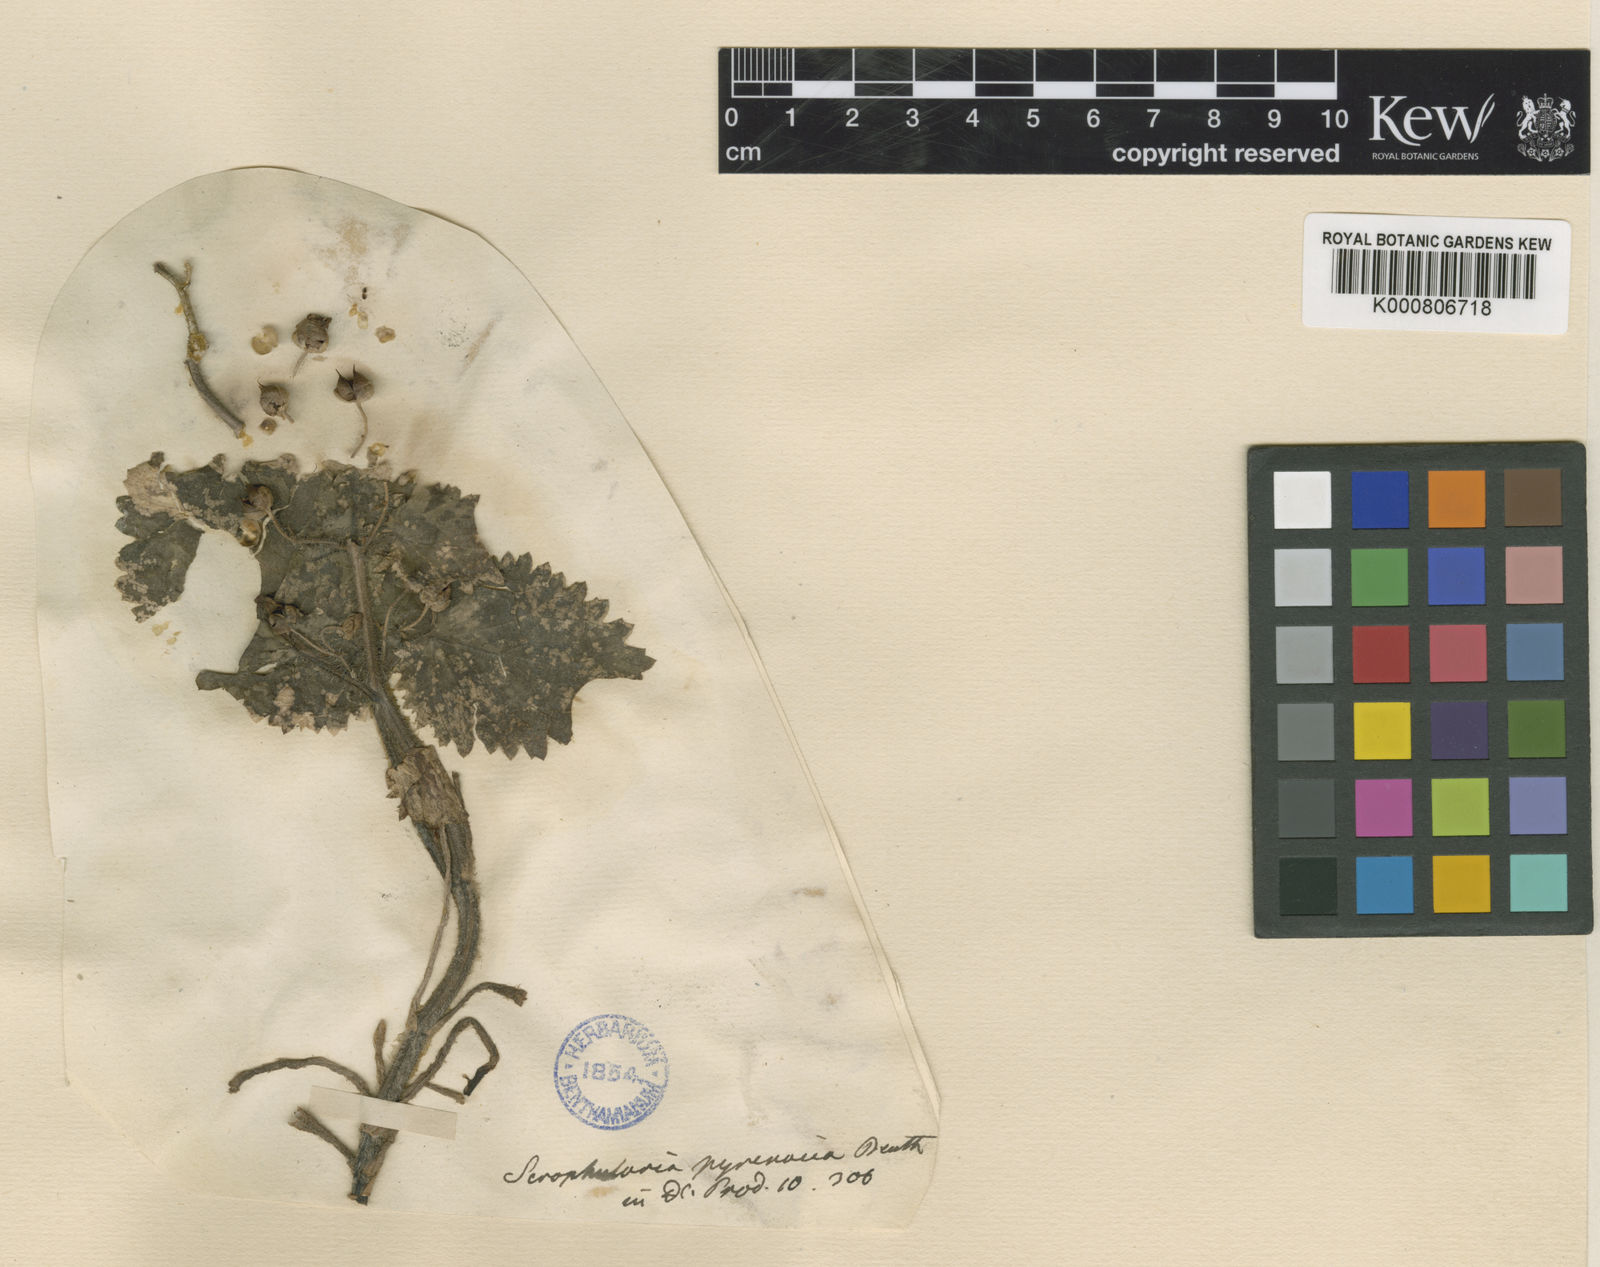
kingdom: Plantae
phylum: Tracheophyta
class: Magnoliopsida
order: Lamiales
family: Scrophulariaceae
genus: Scrophularia
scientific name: Scrophularia pyrenaica
